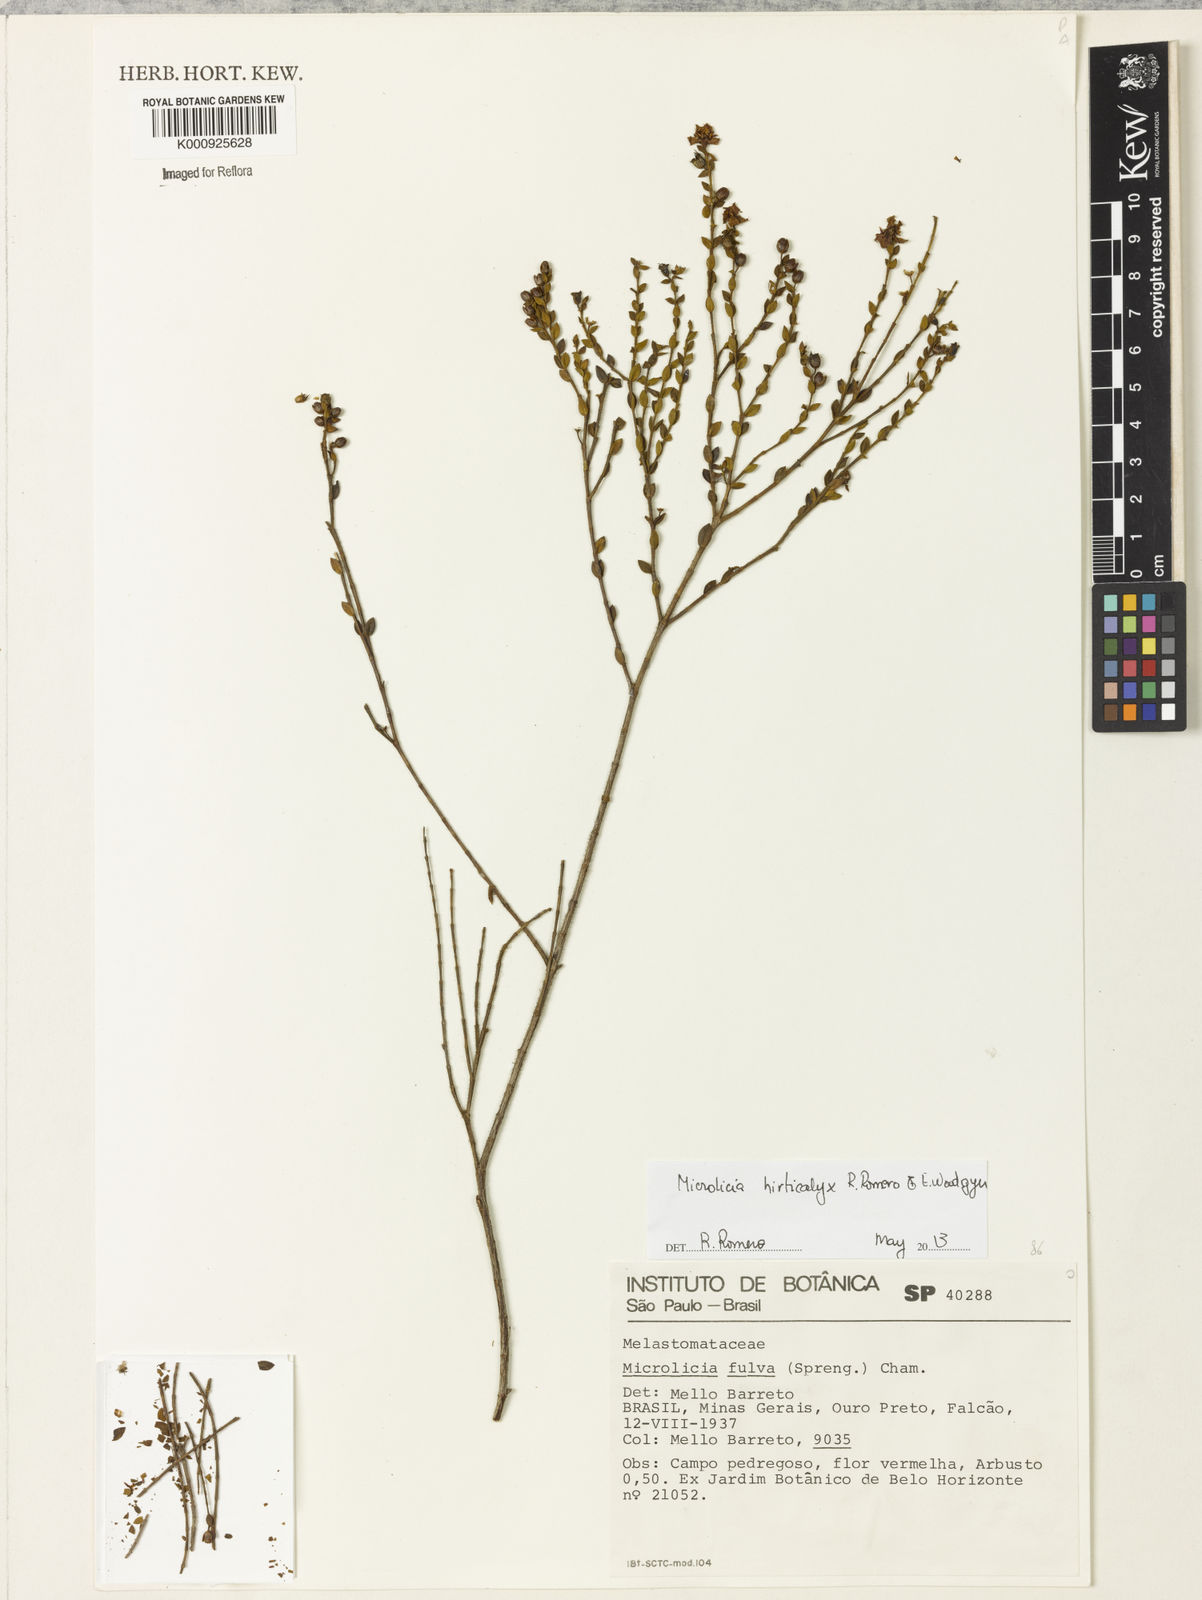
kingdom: Plantae
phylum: Tracheophyta
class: Magnoliopsida
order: Myrtales
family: Melastomataceae
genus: Microlicia
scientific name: Microlicia hirticalyx
